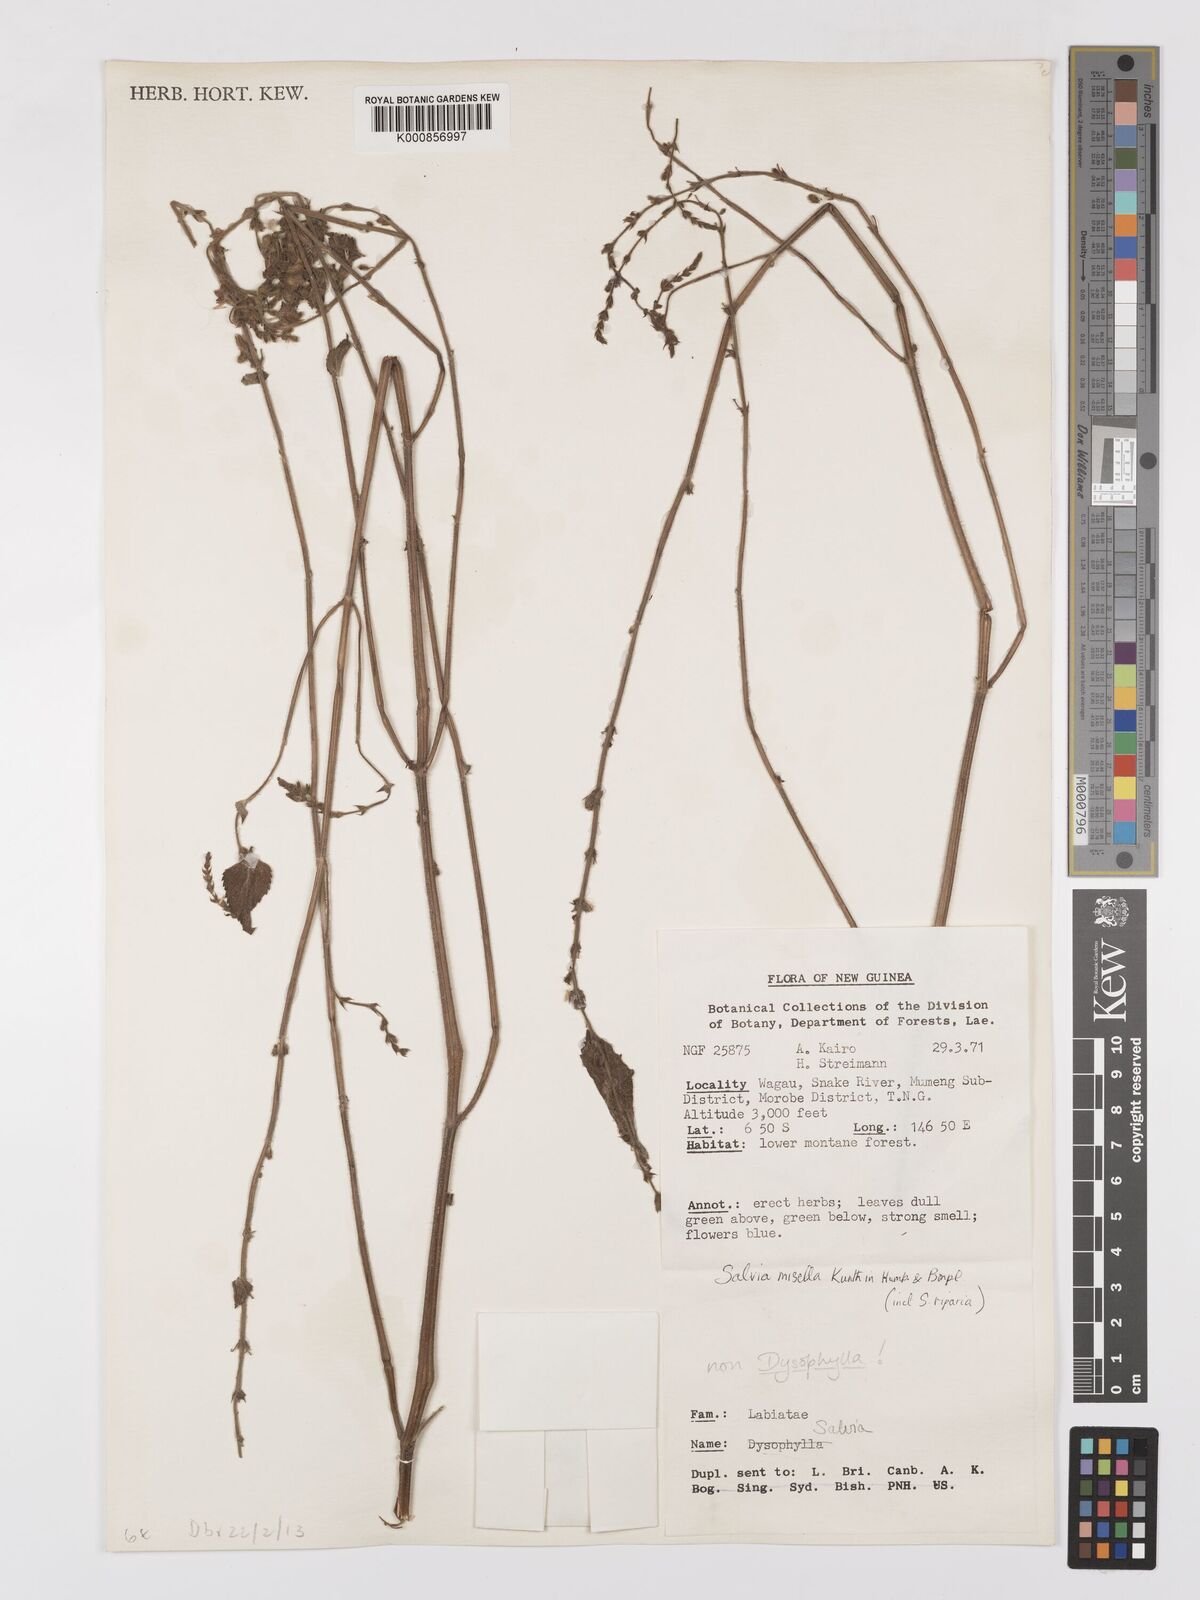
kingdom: Plantae
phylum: Tracheophyta
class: Magnoliopsida
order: Lamiales
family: Lamiaceae
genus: Salvia
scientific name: Salvia misella
